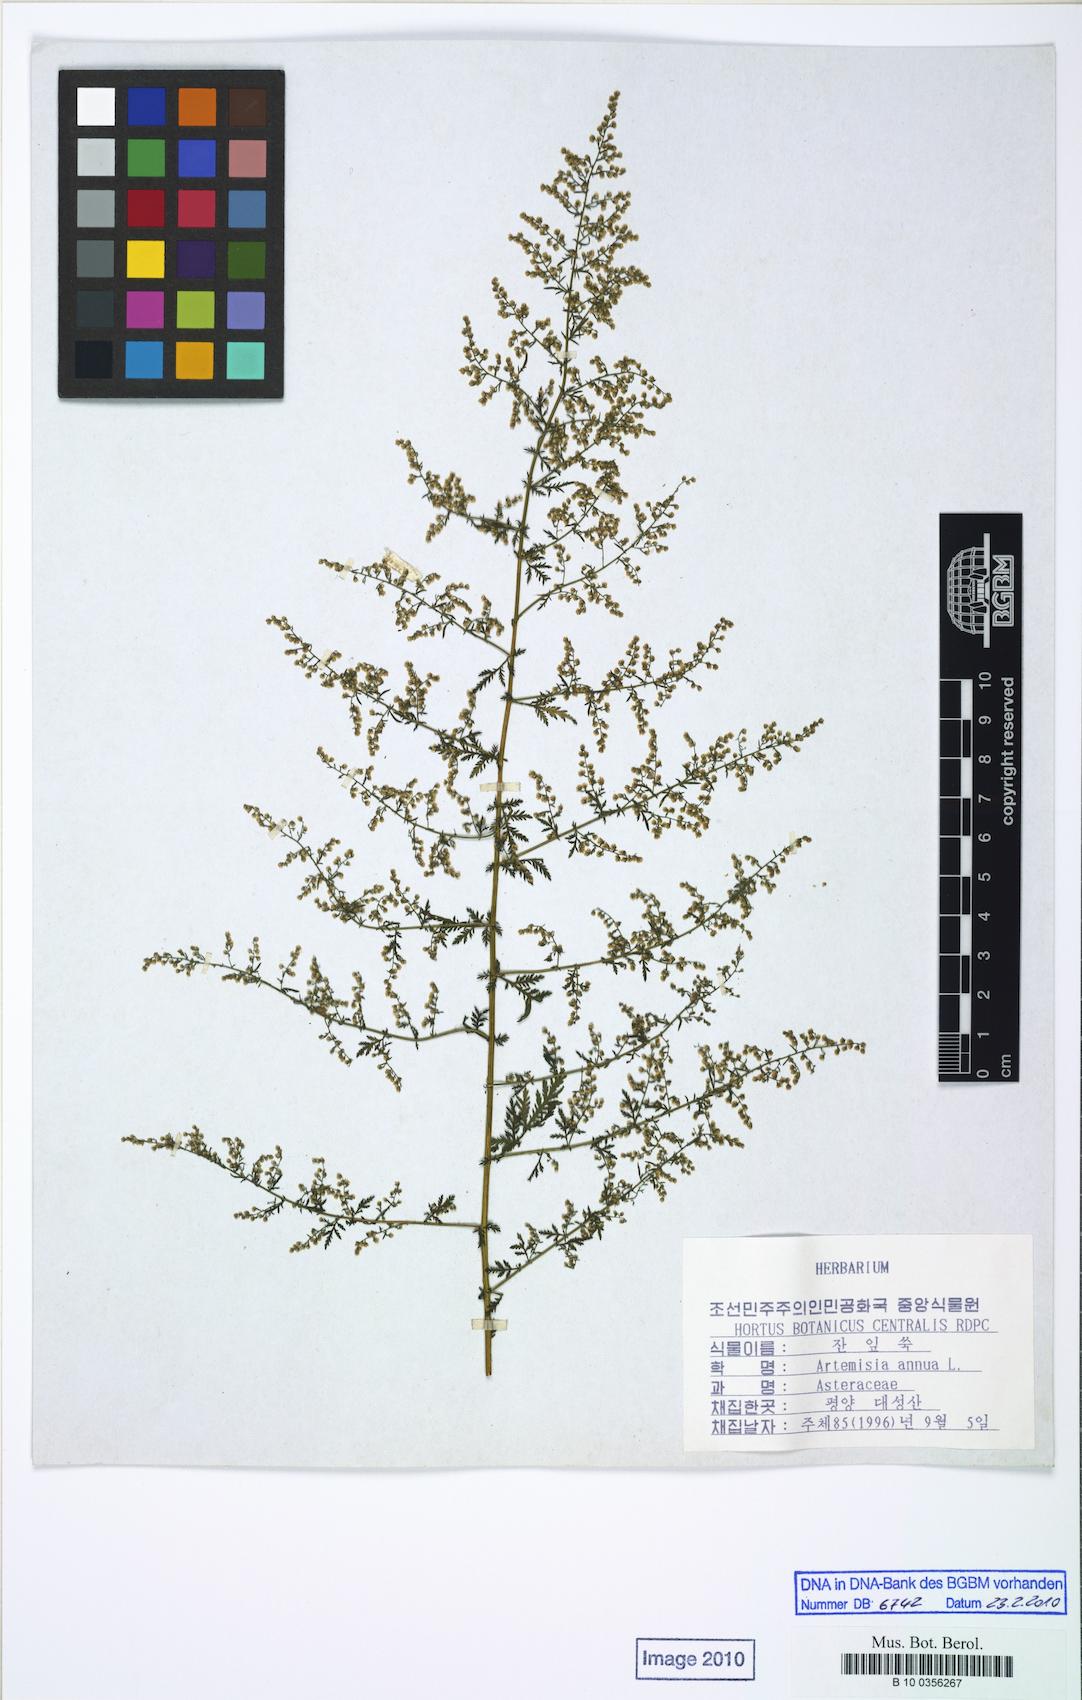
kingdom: Plantae
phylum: Tracheophyta
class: Magnoliopsida
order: Asterales
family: Asteraceae
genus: Artemisia
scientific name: Artemisia annua
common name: Sweet sagewort
